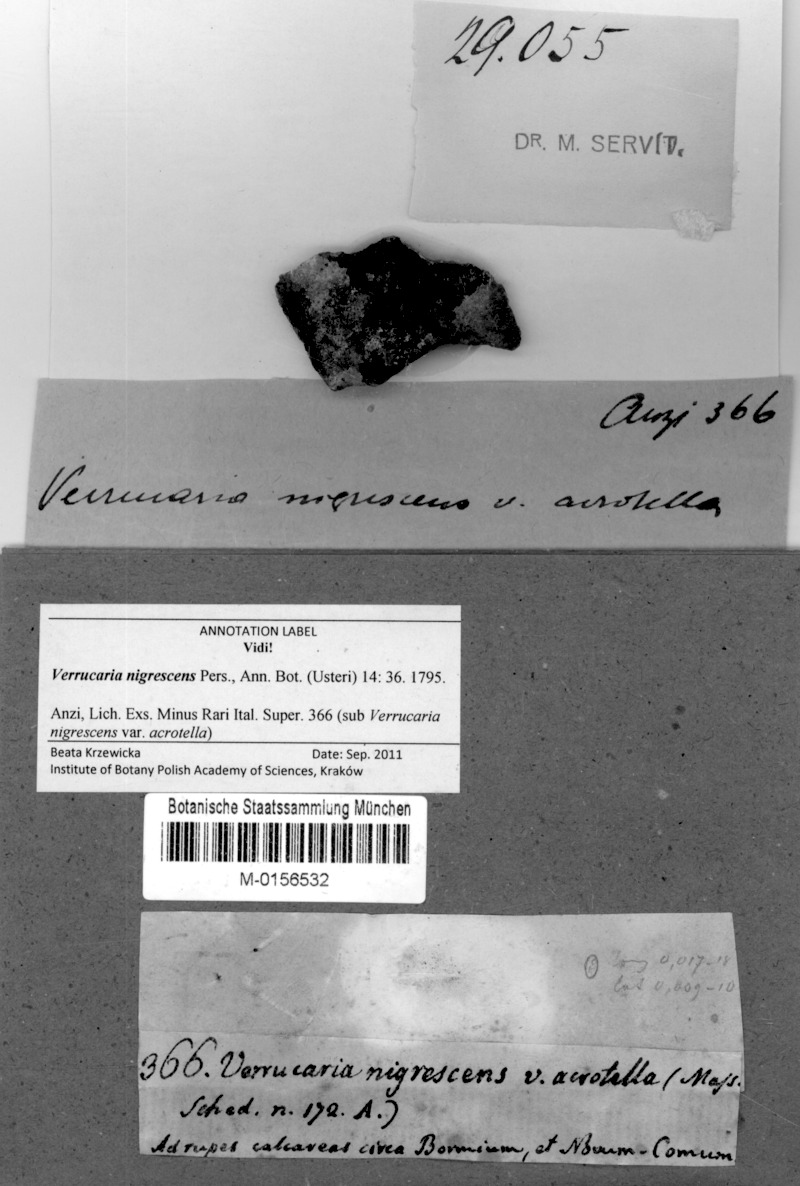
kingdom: Fungi
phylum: Ascomycota
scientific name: Ascomycota
